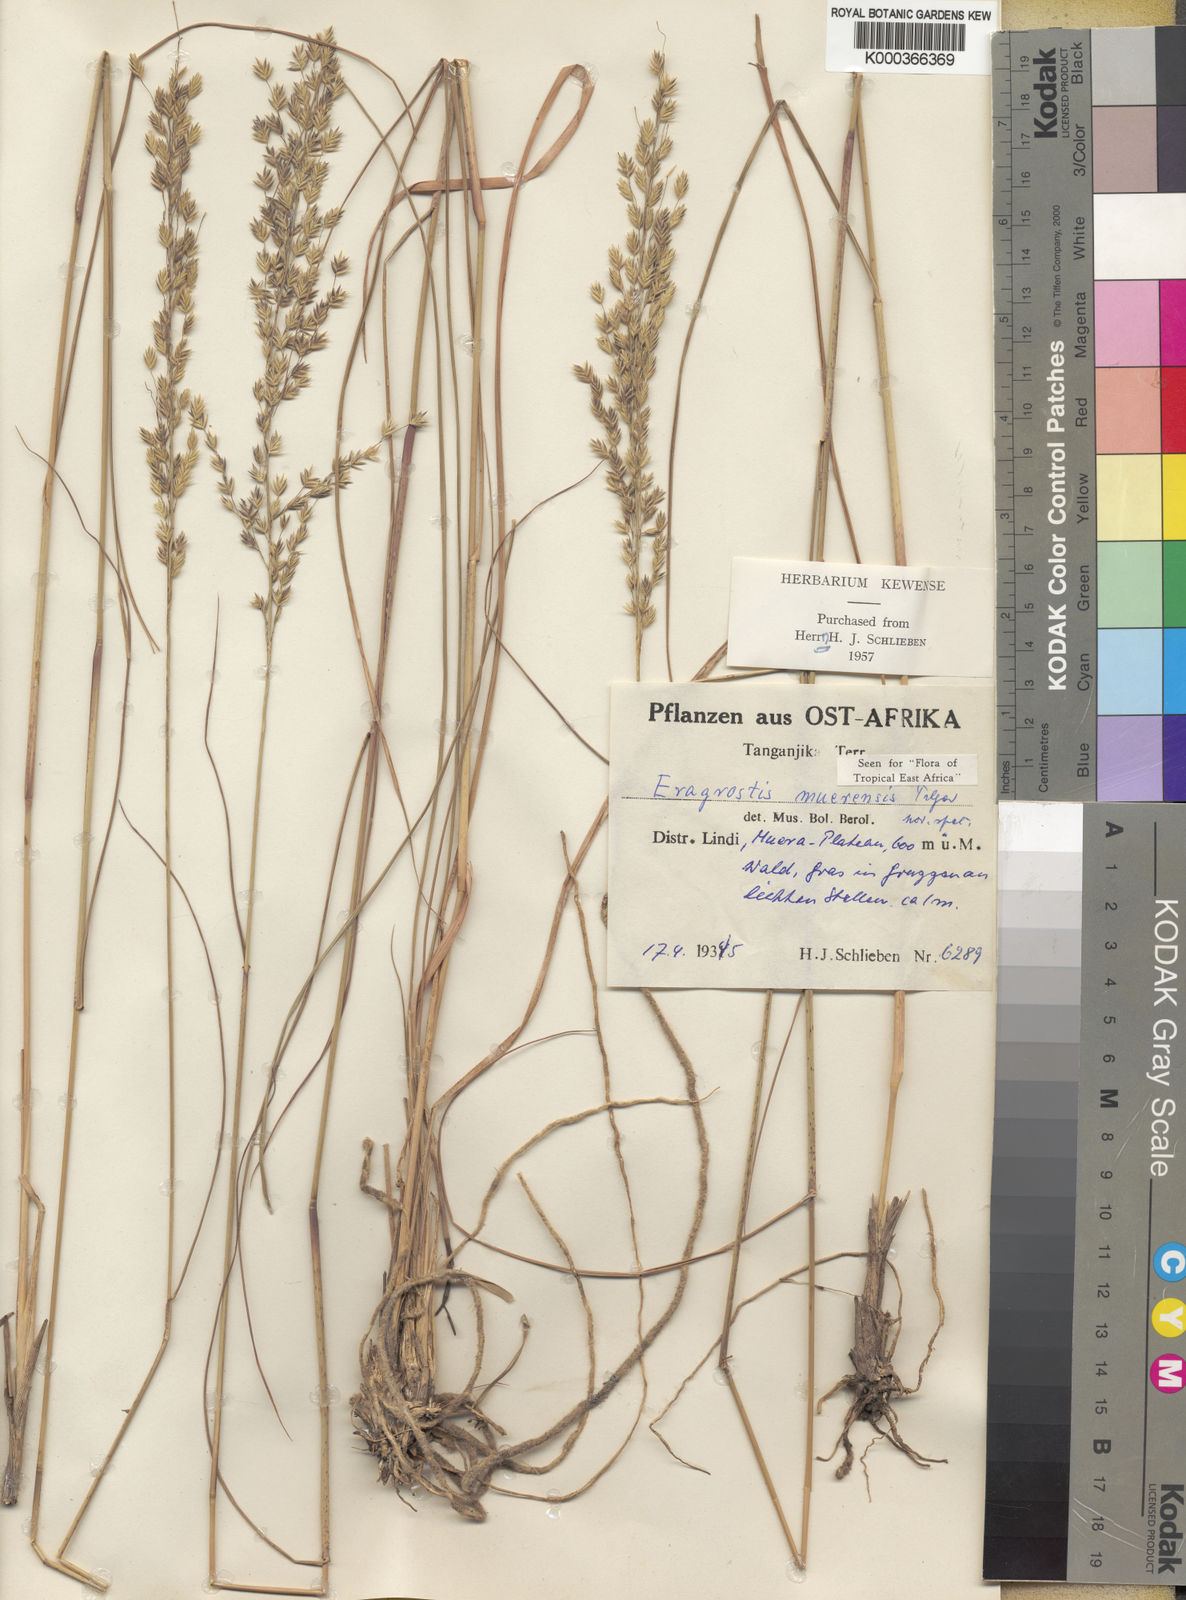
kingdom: Plantae
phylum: Tracheophyta
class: Liliopsida
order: Poales
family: Poaceae
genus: Eragrostis
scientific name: Eragrostis muerensis
